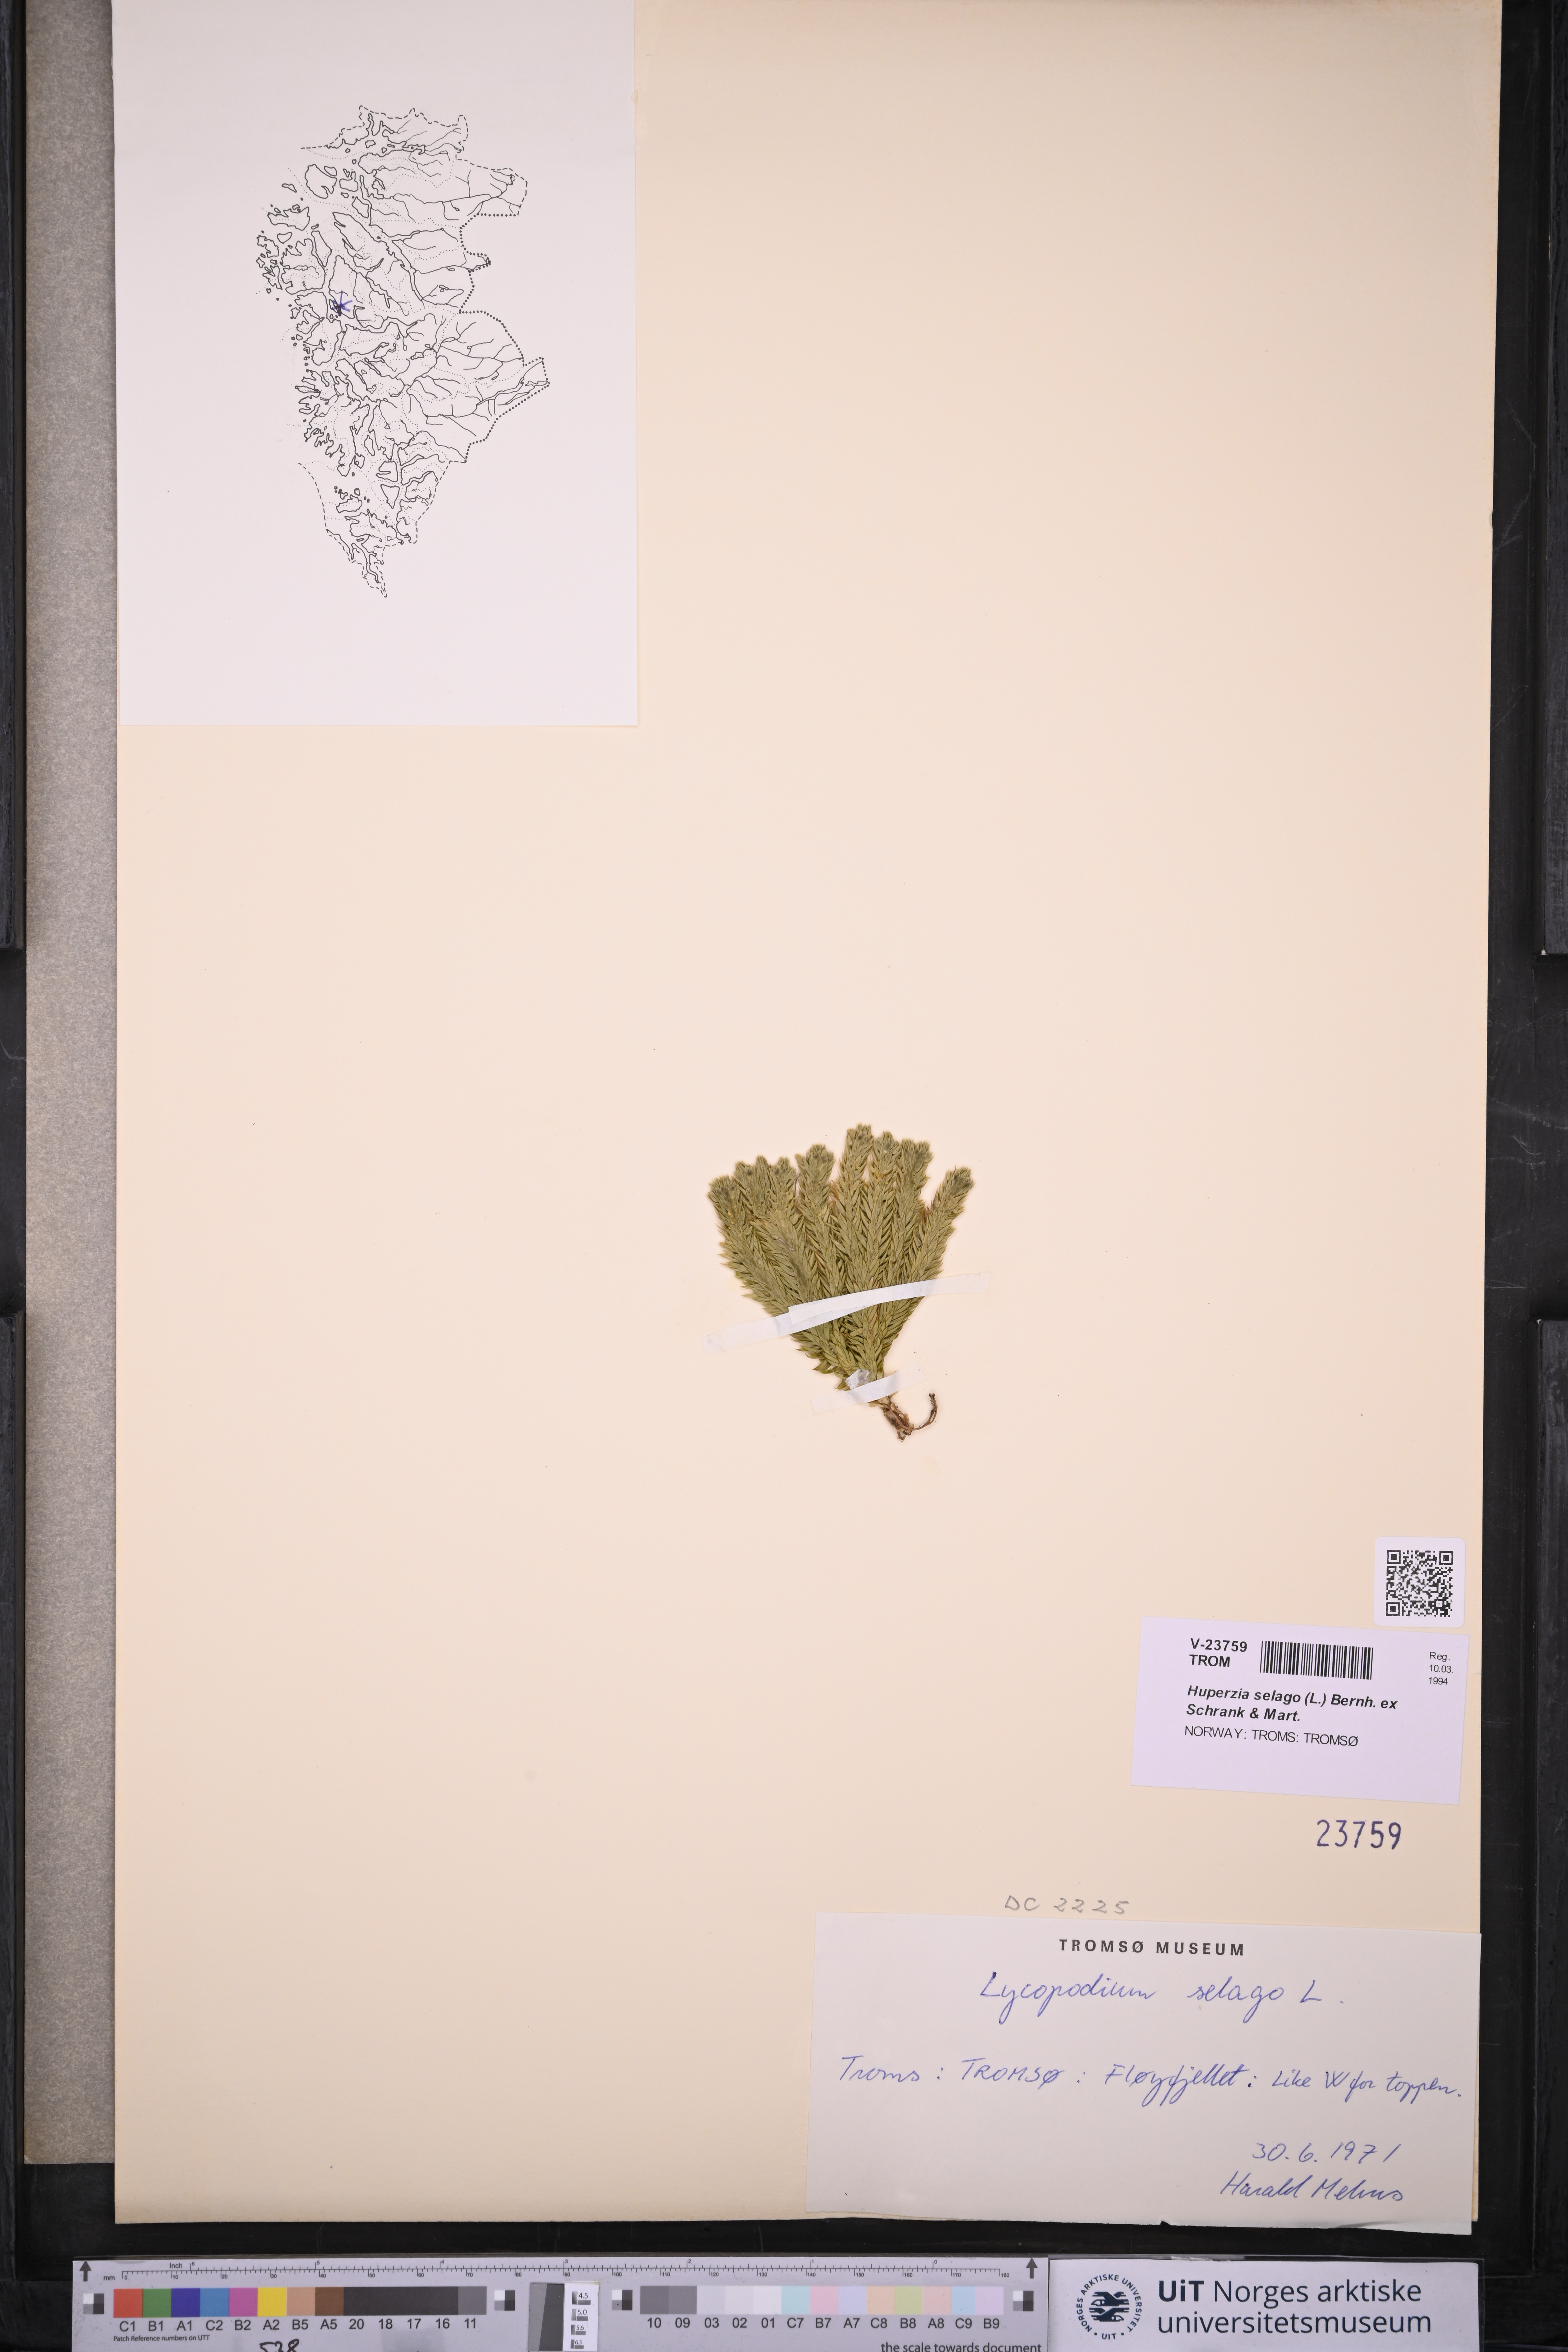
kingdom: Plantae
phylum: Tracheophyta
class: Lycopodiopsida
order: Lycopodiales
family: Lycopodiaceae
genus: Huperzia
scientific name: Huperzia selago
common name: Northern firmoss
